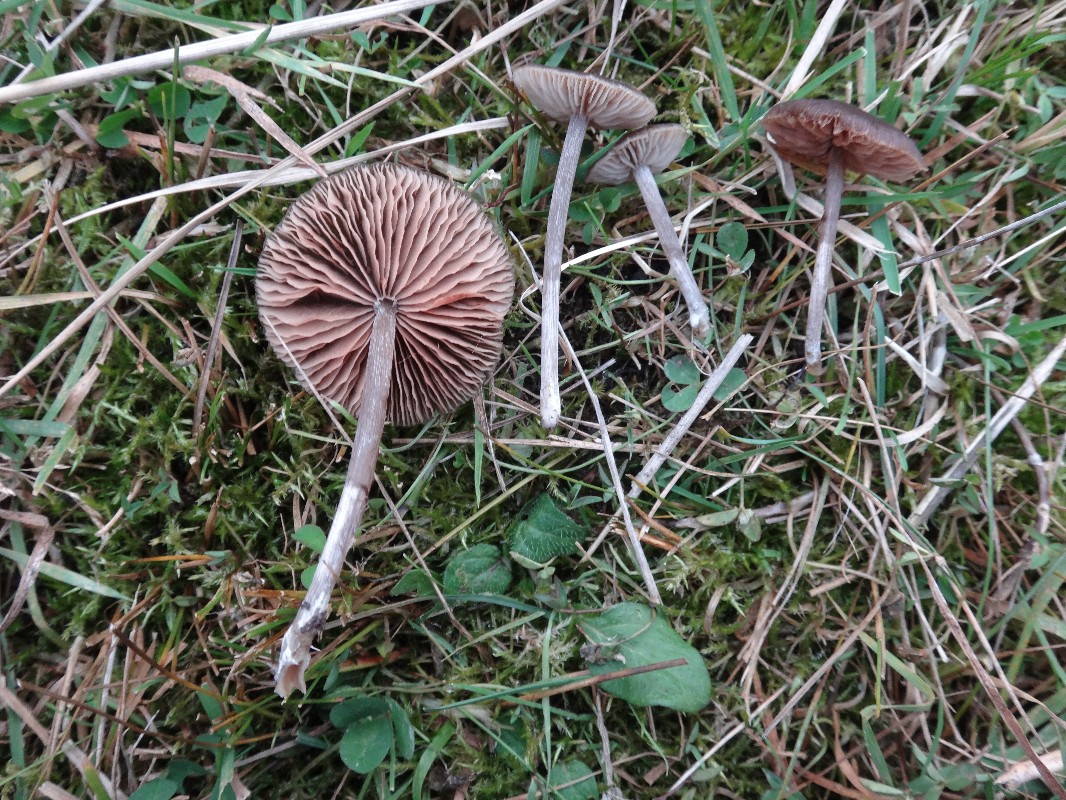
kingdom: Fungi
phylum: Basidiomycota
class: Agaricomycetes
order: Agaricales
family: Entolomataceae
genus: Entoloma
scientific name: Entoloma sericeum
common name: silkeglinsende rødblad
